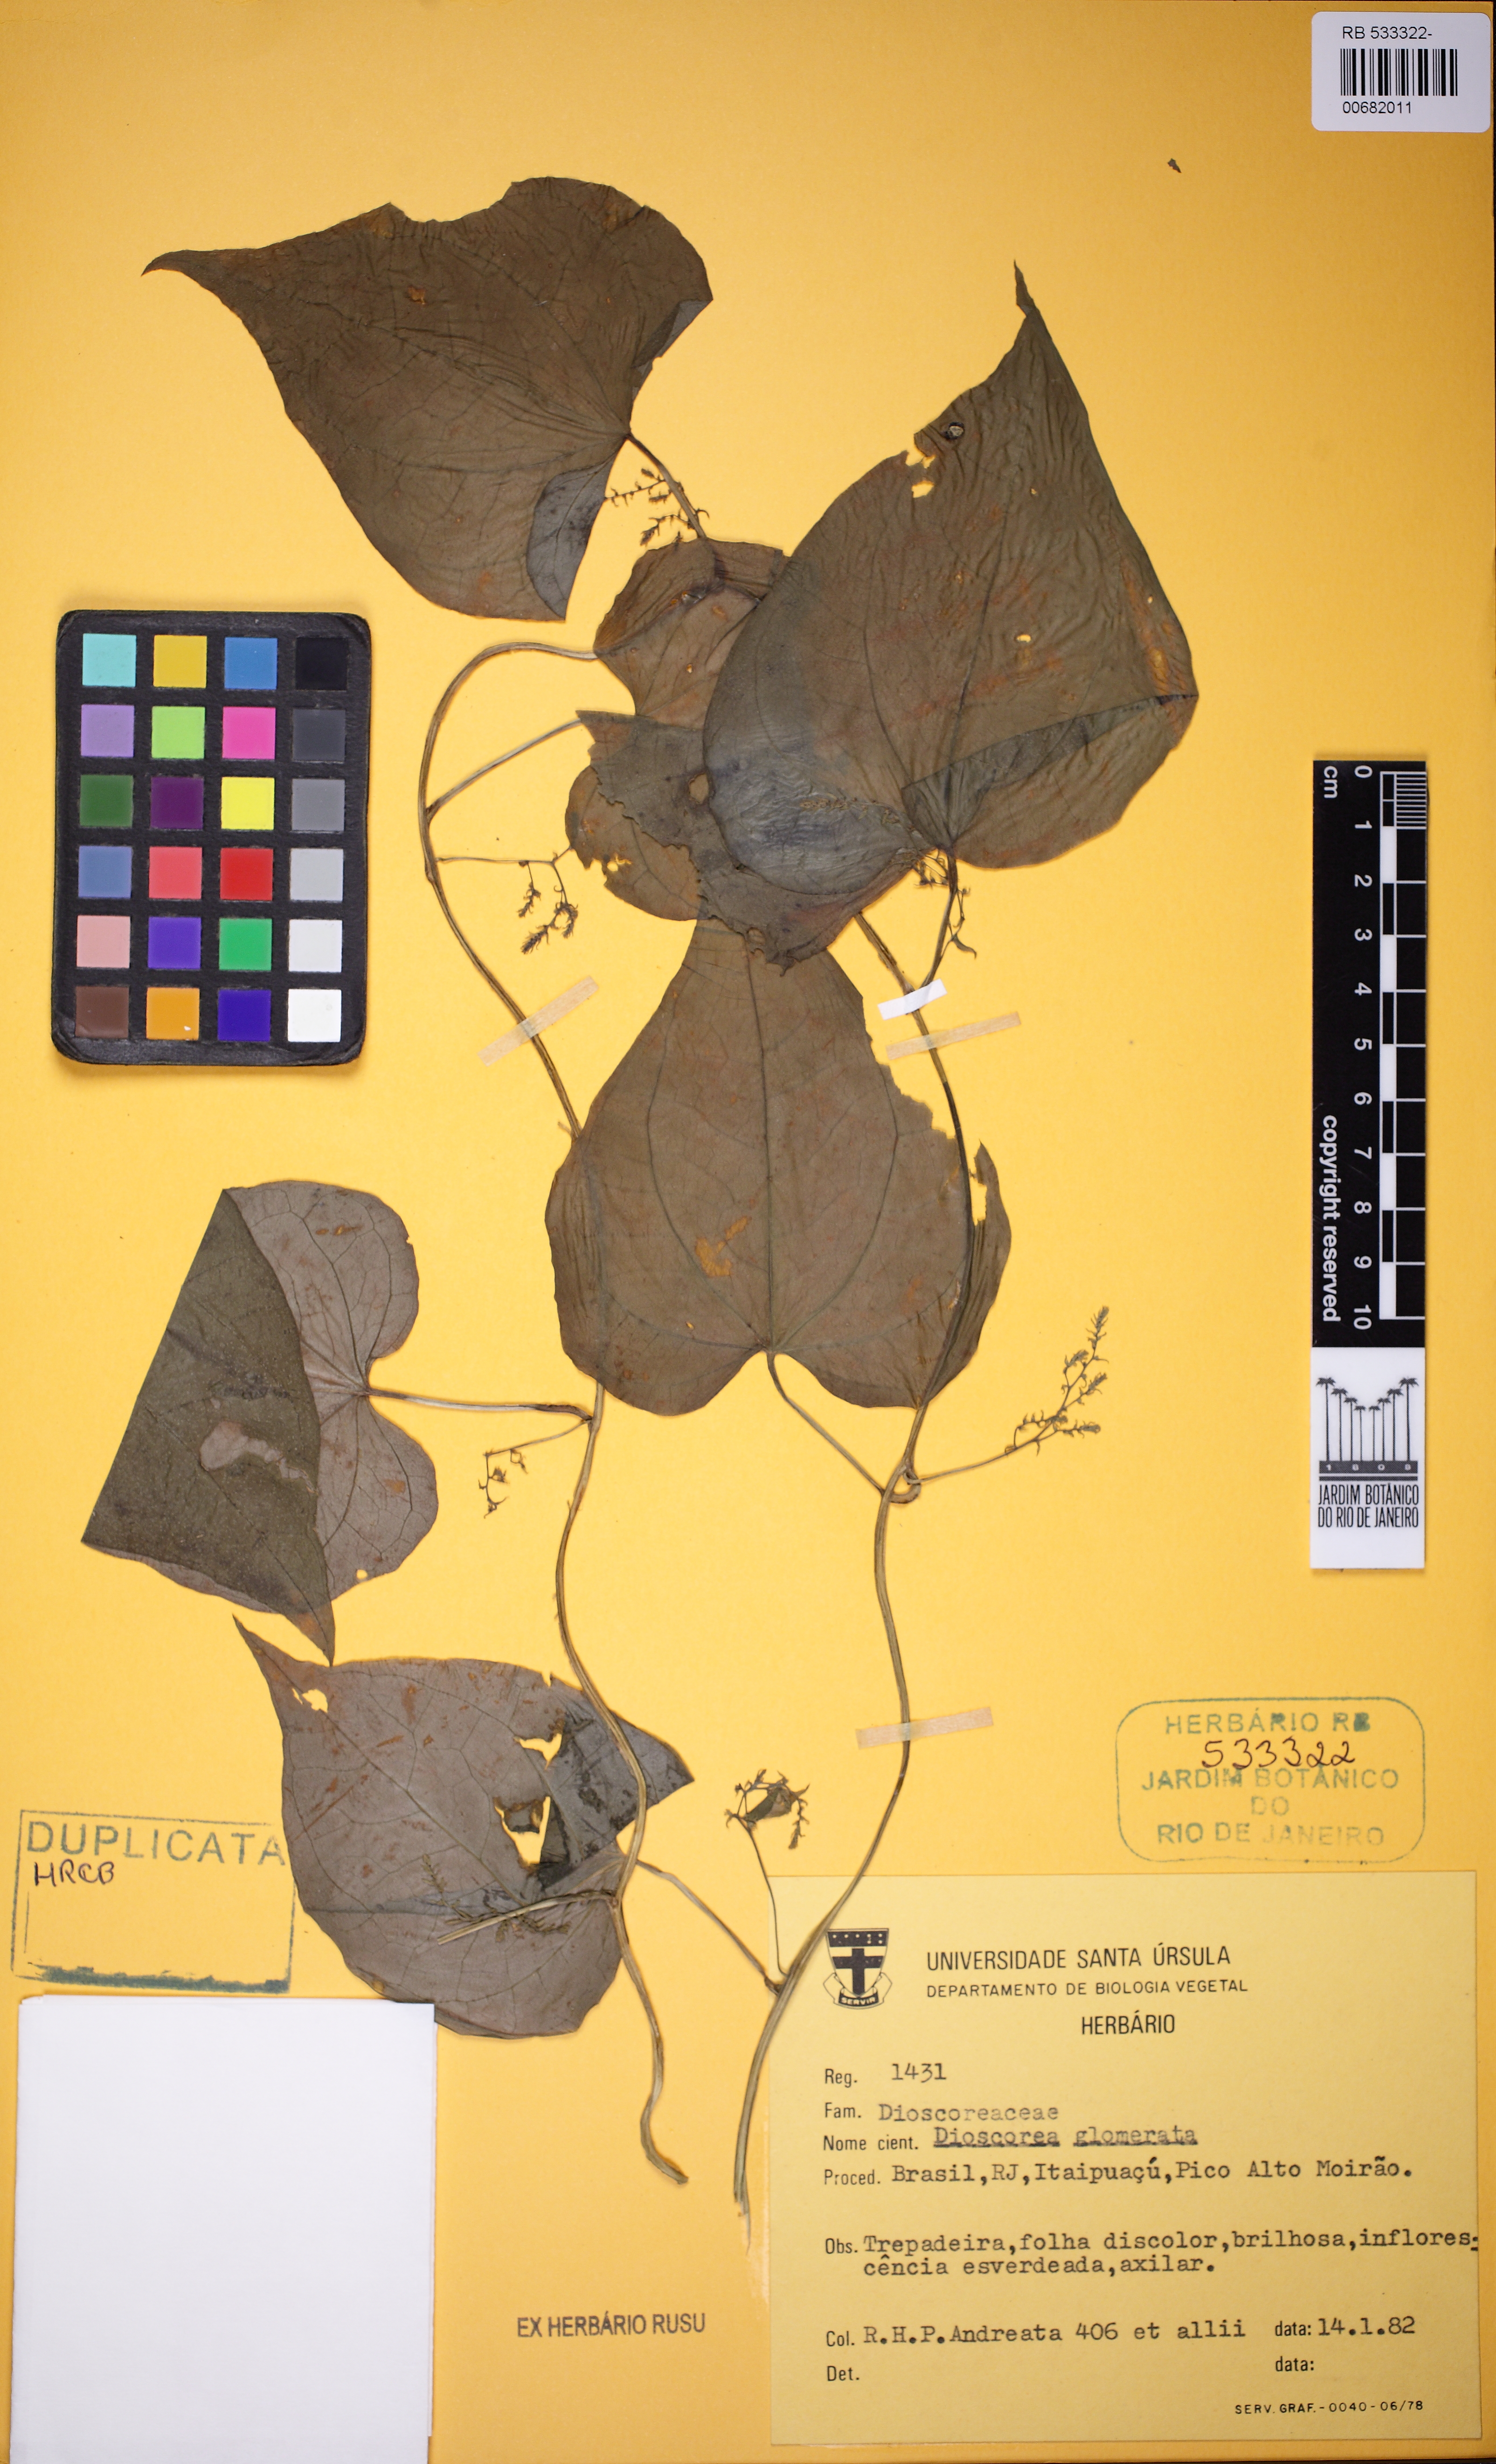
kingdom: Plantae
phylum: Tracheophyta
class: Liliopsida
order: Dioscoreales
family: Dioscoreaceae
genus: Dioscorea
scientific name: Dioscorea glomerulata
